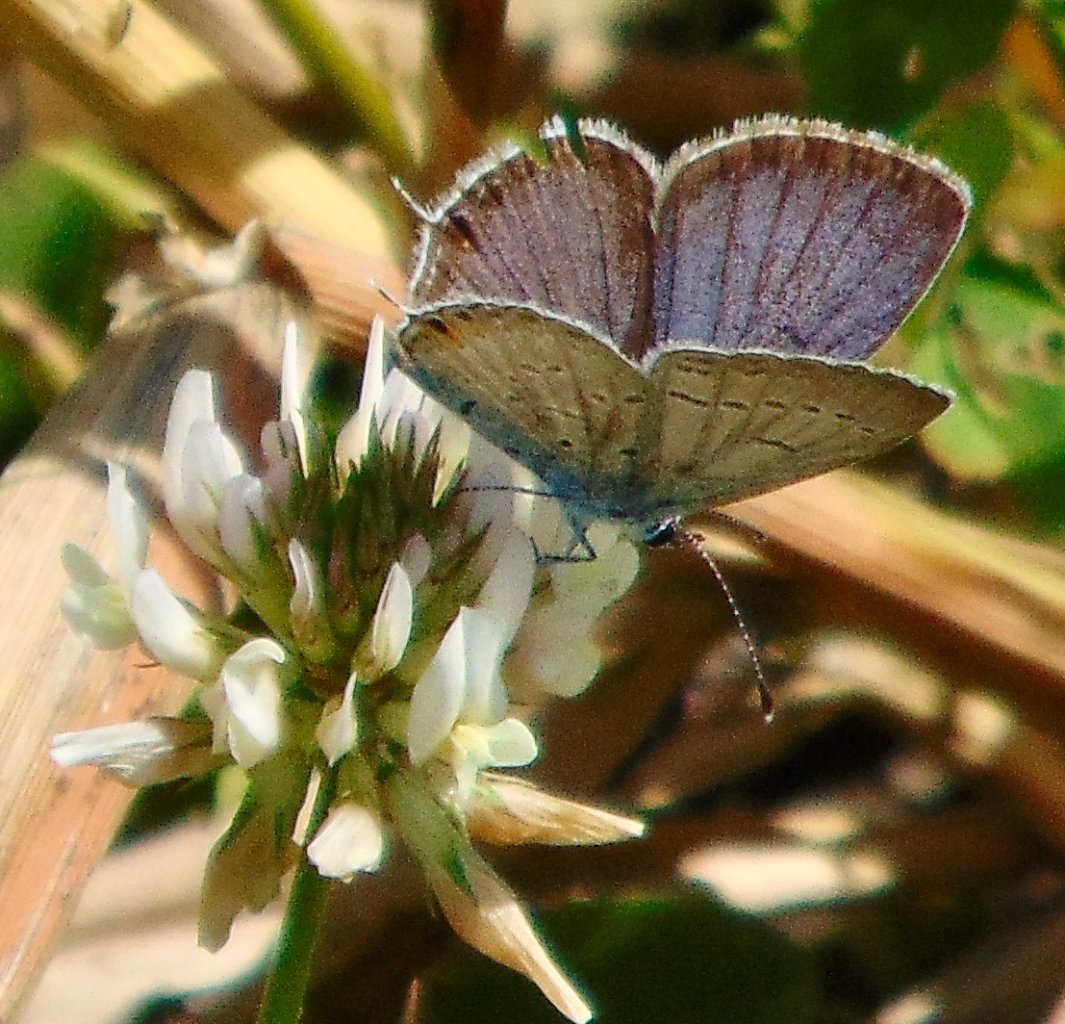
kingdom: Animalia
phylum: Arthropoda
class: Insecta
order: Lepidoptera
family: Lycaenidae
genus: Elkalyce
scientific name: Elkalyce comyntas
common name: Eastern Tailed-Blue
